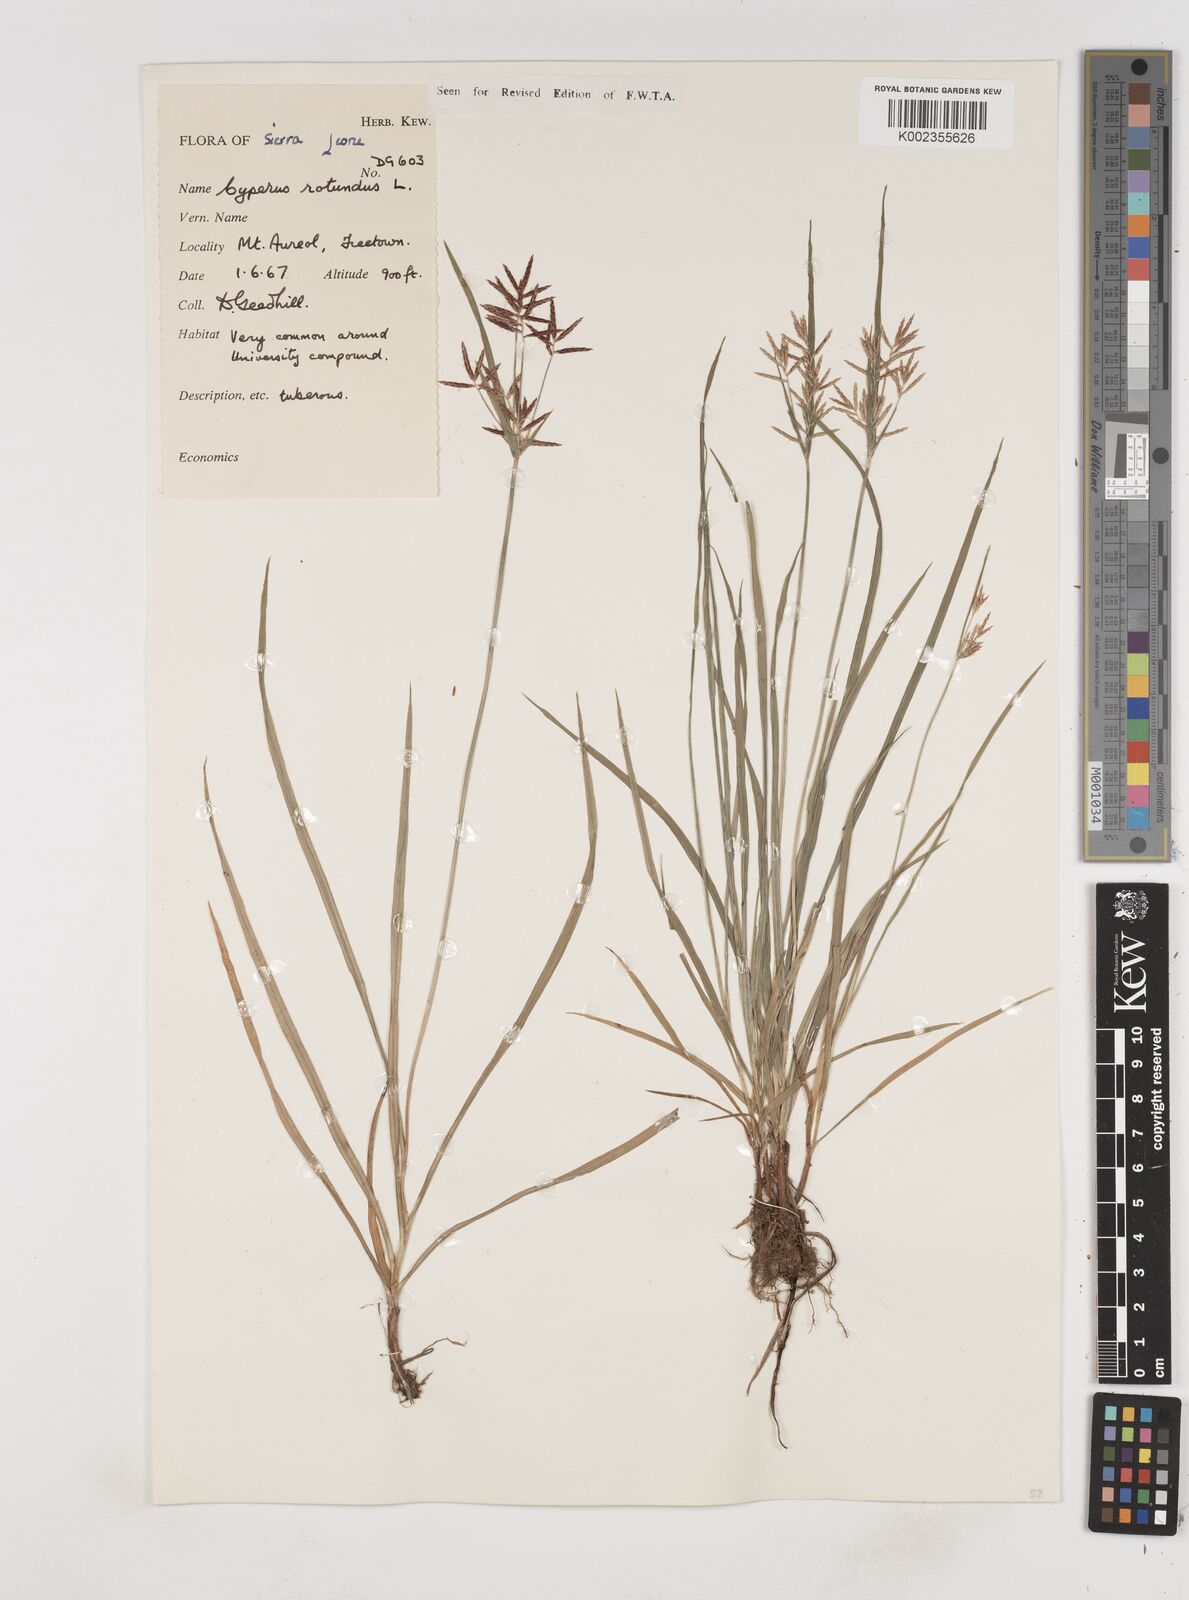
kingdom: Plantae
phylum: Tracheophyta
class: Liliopsida
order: Poales
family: Cyperaceae
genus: Cyperus
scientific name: Cyperus rotundus
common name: Nutgrass
